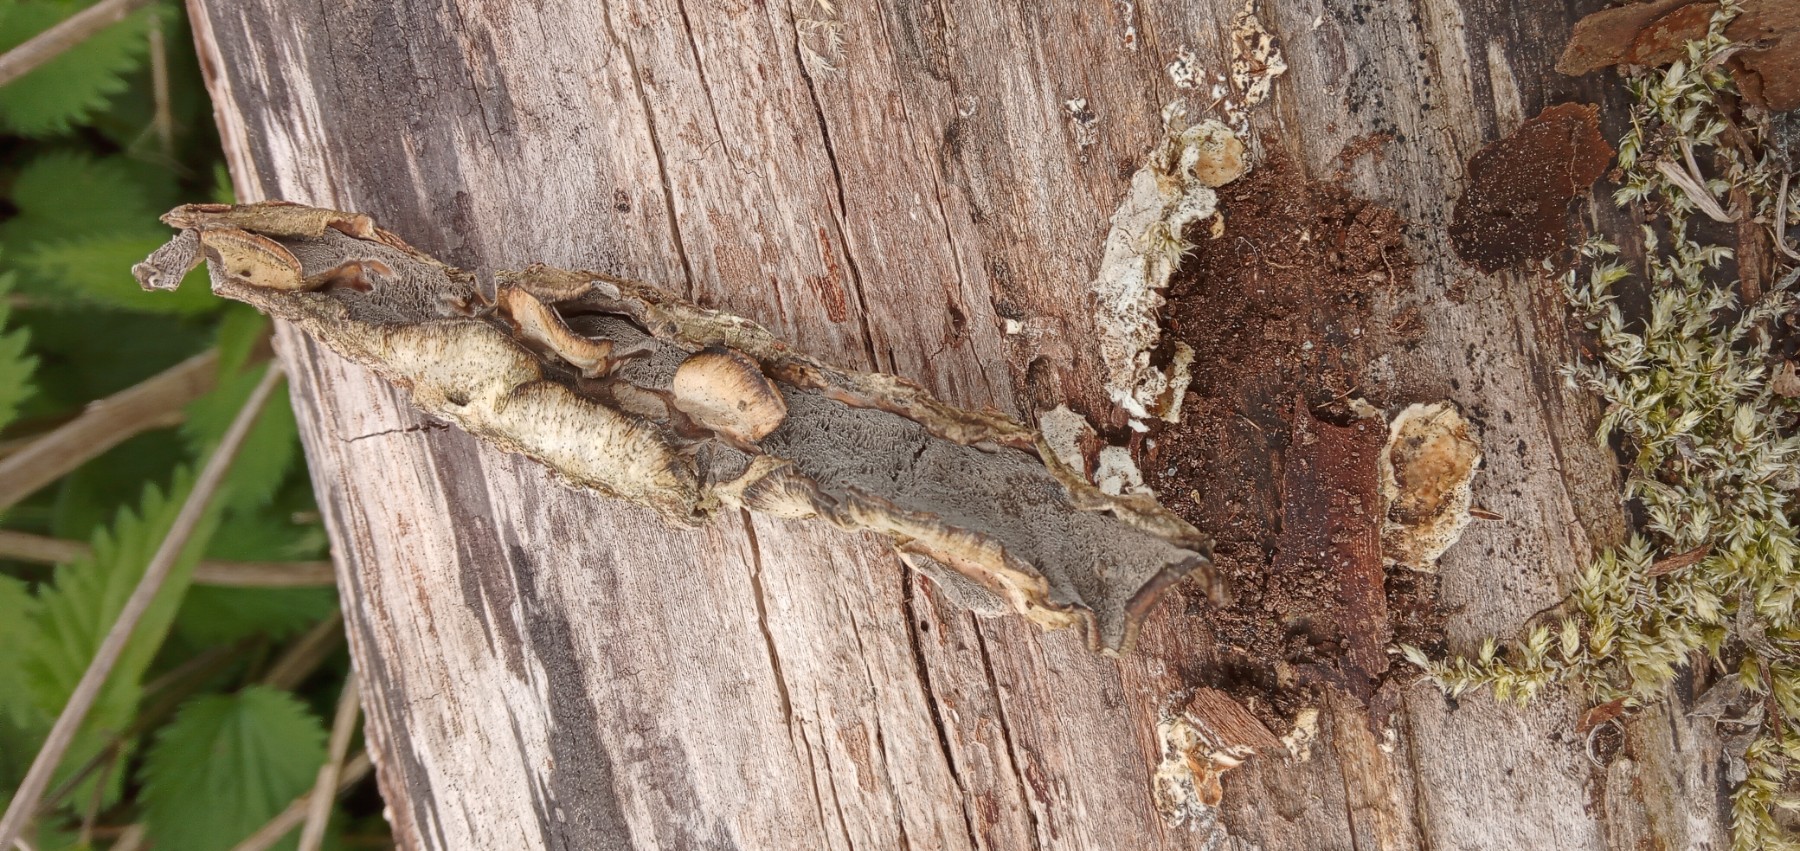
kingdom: Fungi
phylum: Basidiomycota
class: Agaricomycetes
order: Polyporales
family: Incrustoporiaceae
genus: Skeletocutis
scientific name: Skeletocutis nemoralis
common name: stor krystalporesvamp
